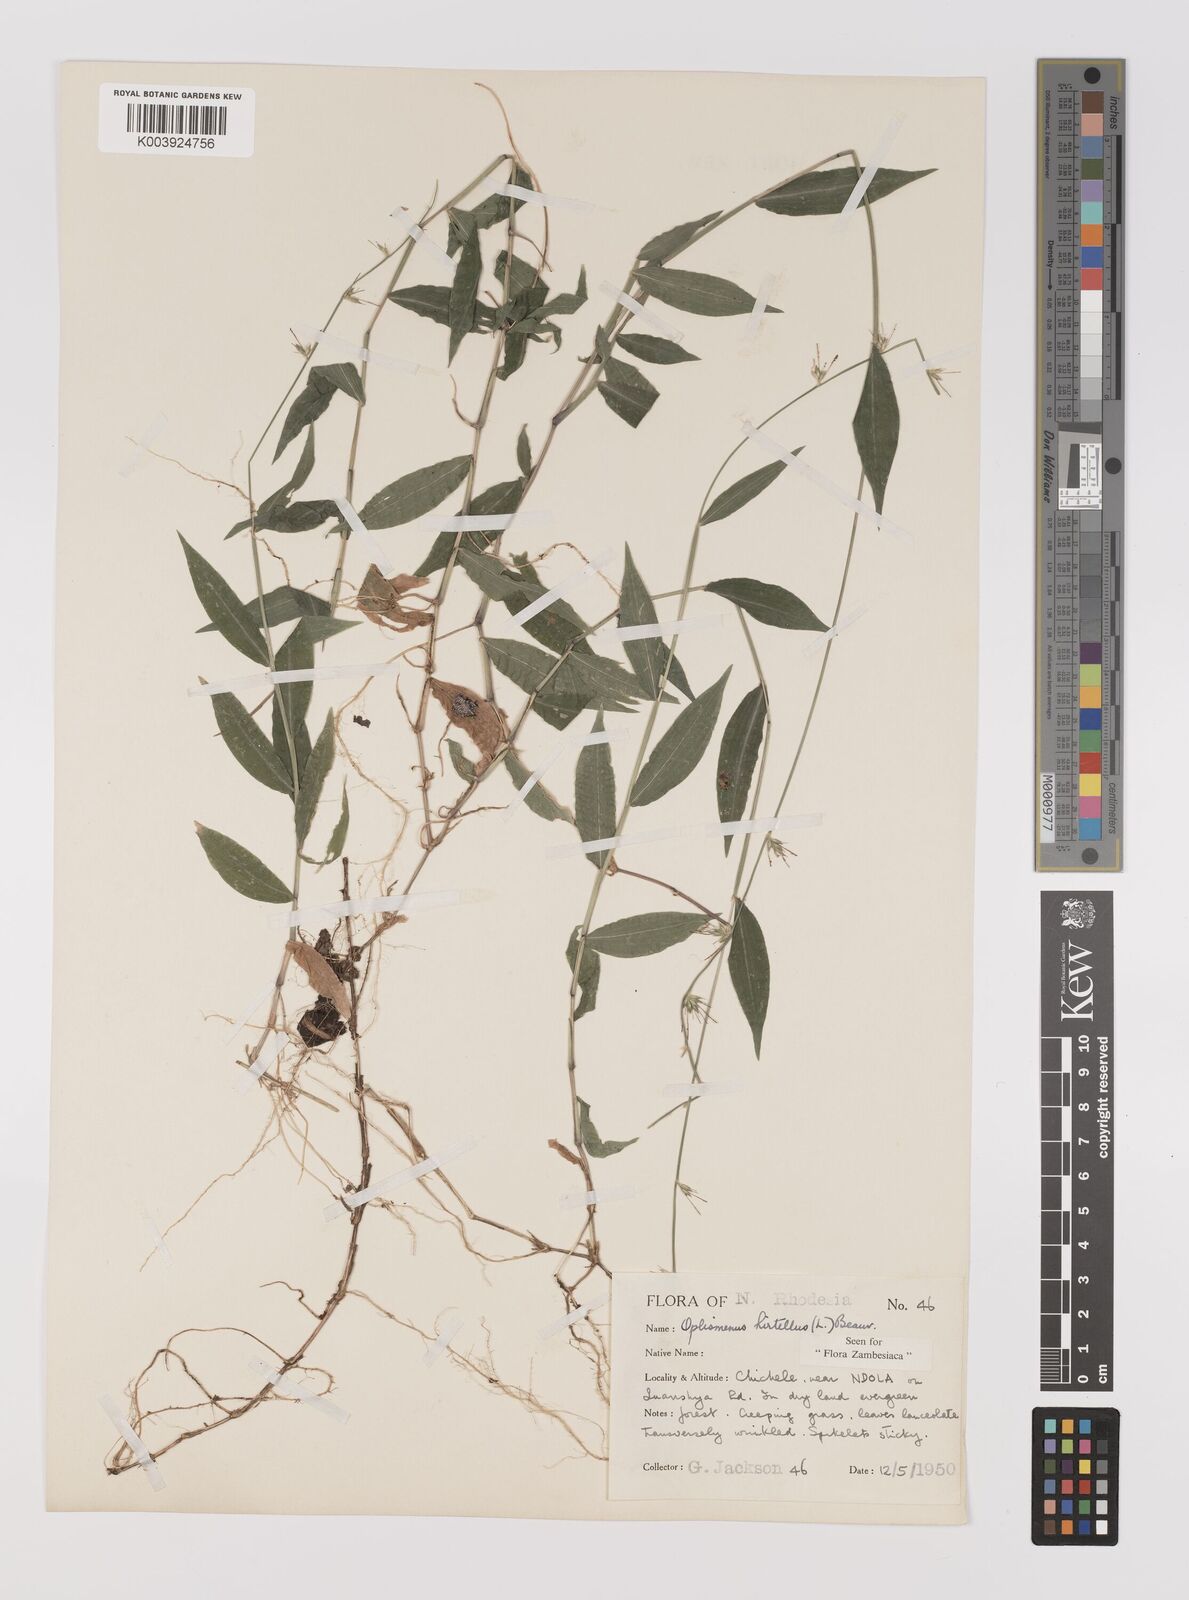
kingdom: Plantae
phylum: Tracheophyta
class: Liliopsida
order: Poales
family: Poaceae
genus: Oplismenus
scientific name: Oplismenus hirtellus
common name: Basketgrass
